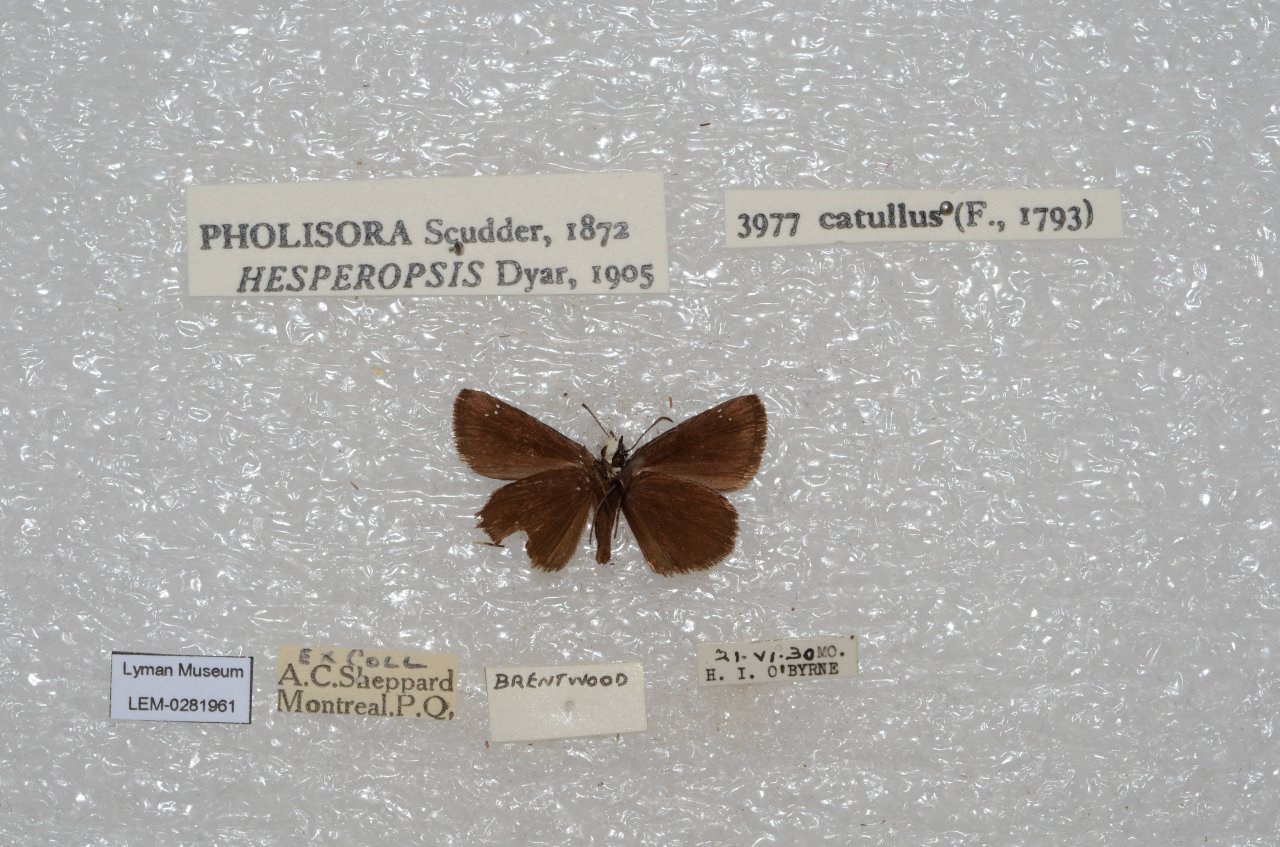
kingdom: Animalia
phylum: Arthropoda
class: Insecta
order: Lepidoptera
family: Hesperiidae
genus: Pholisora
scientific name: Pholisora catullus
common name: Common Sootywing
